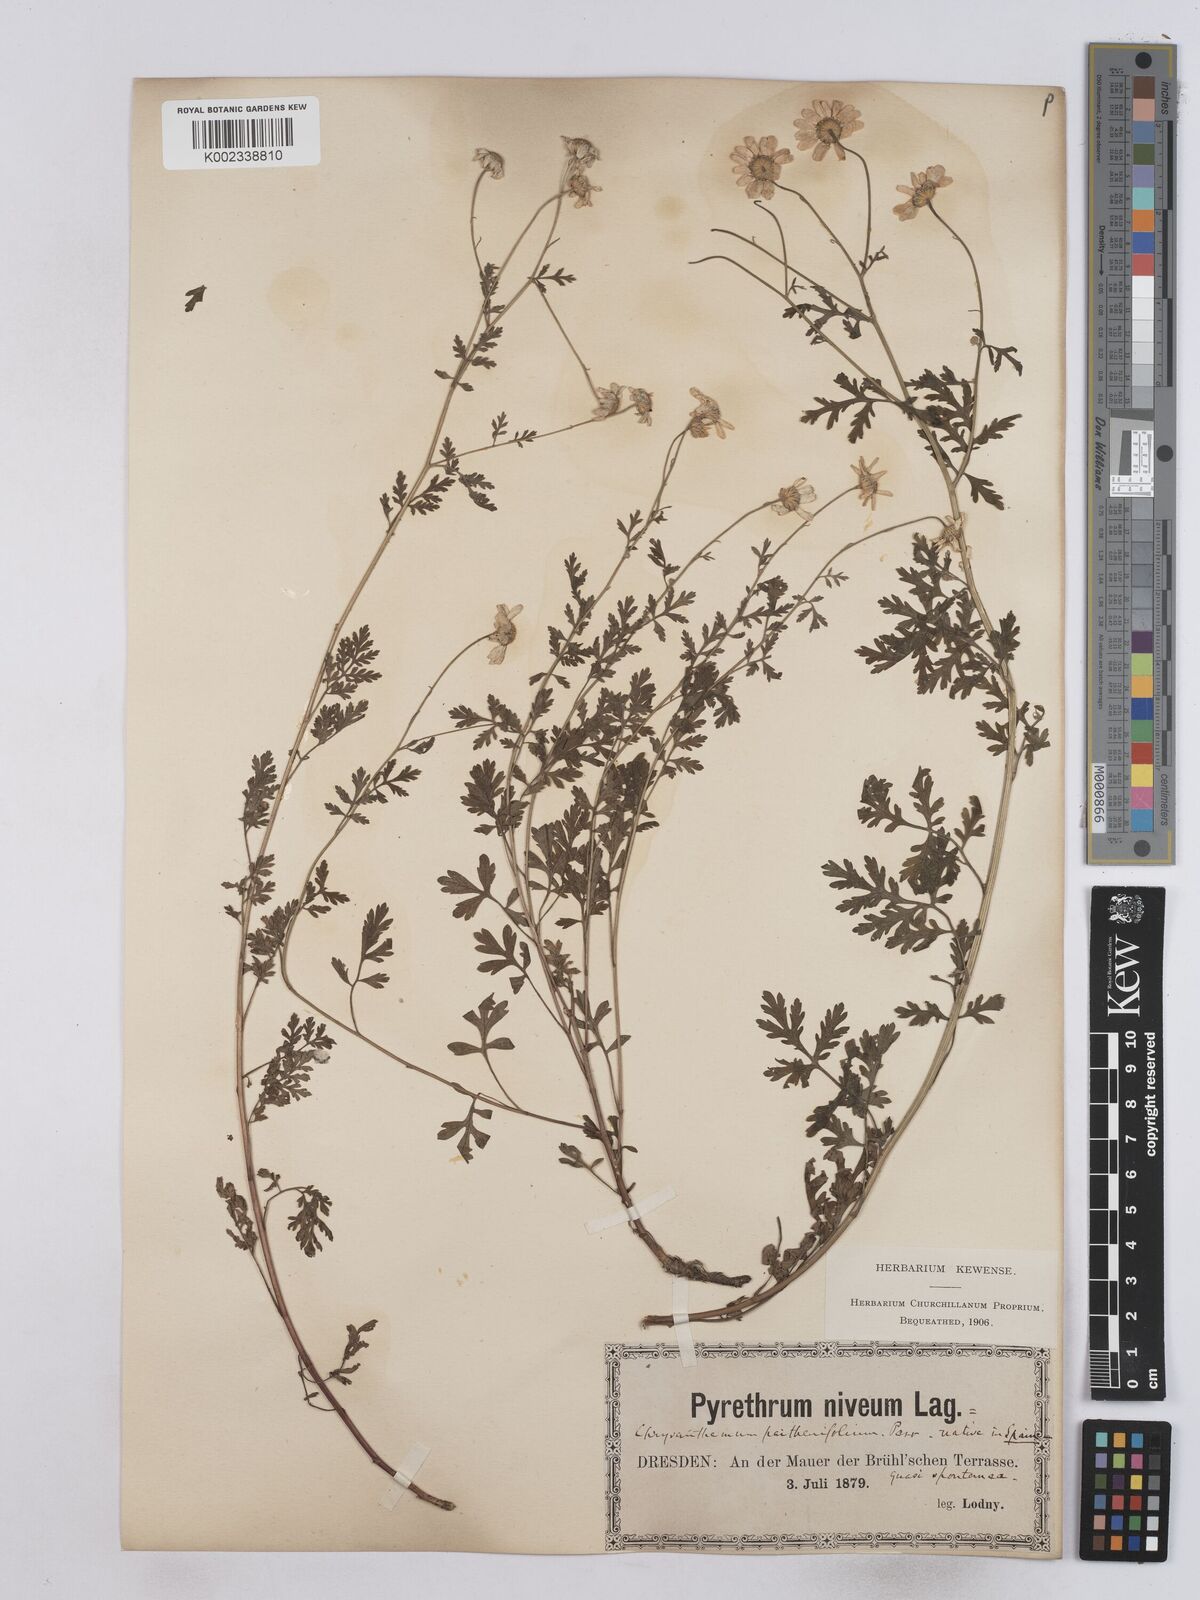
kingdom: Plantae
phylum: Tracheophyta
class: Magnoliopsida
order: Asterales
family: Asteraceae
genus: Tanacetum
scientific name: Tanacetum partheniifolium
